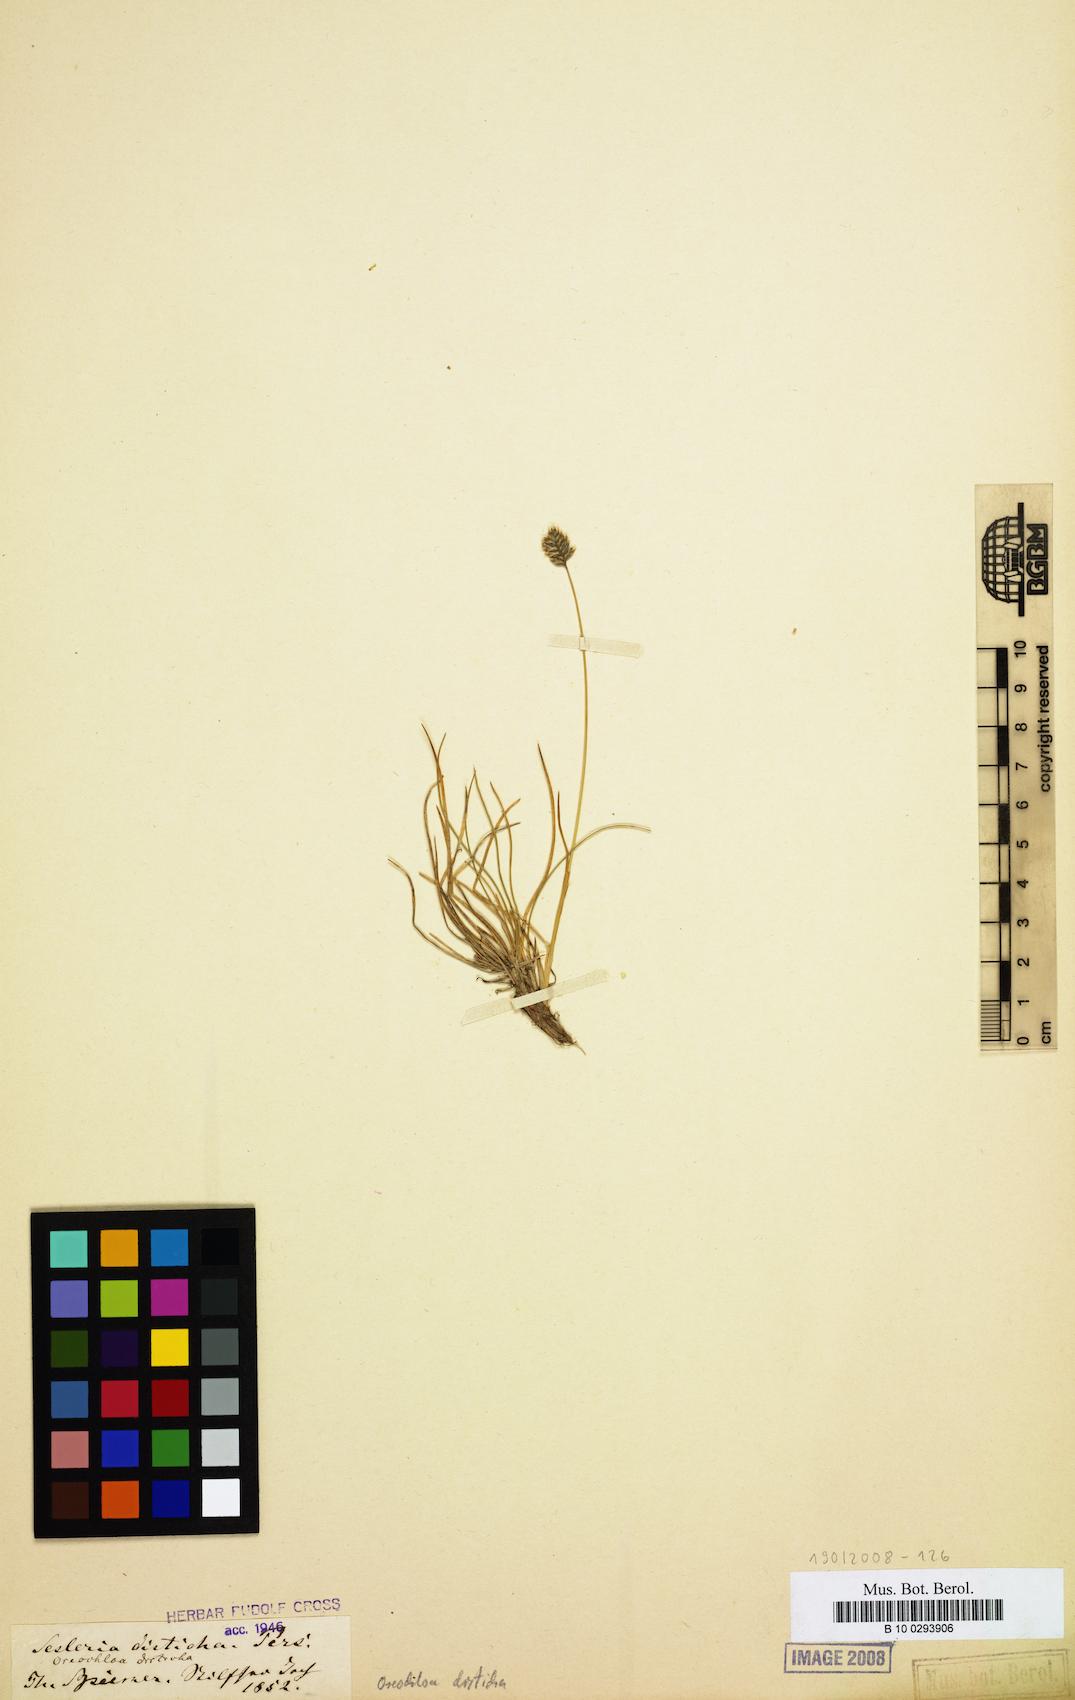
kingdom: Plantae
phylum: Tracheophyta
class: Liliopsida
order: Poales
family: Poaceae
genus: Oreochloa
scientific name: Oreochloa disticha
